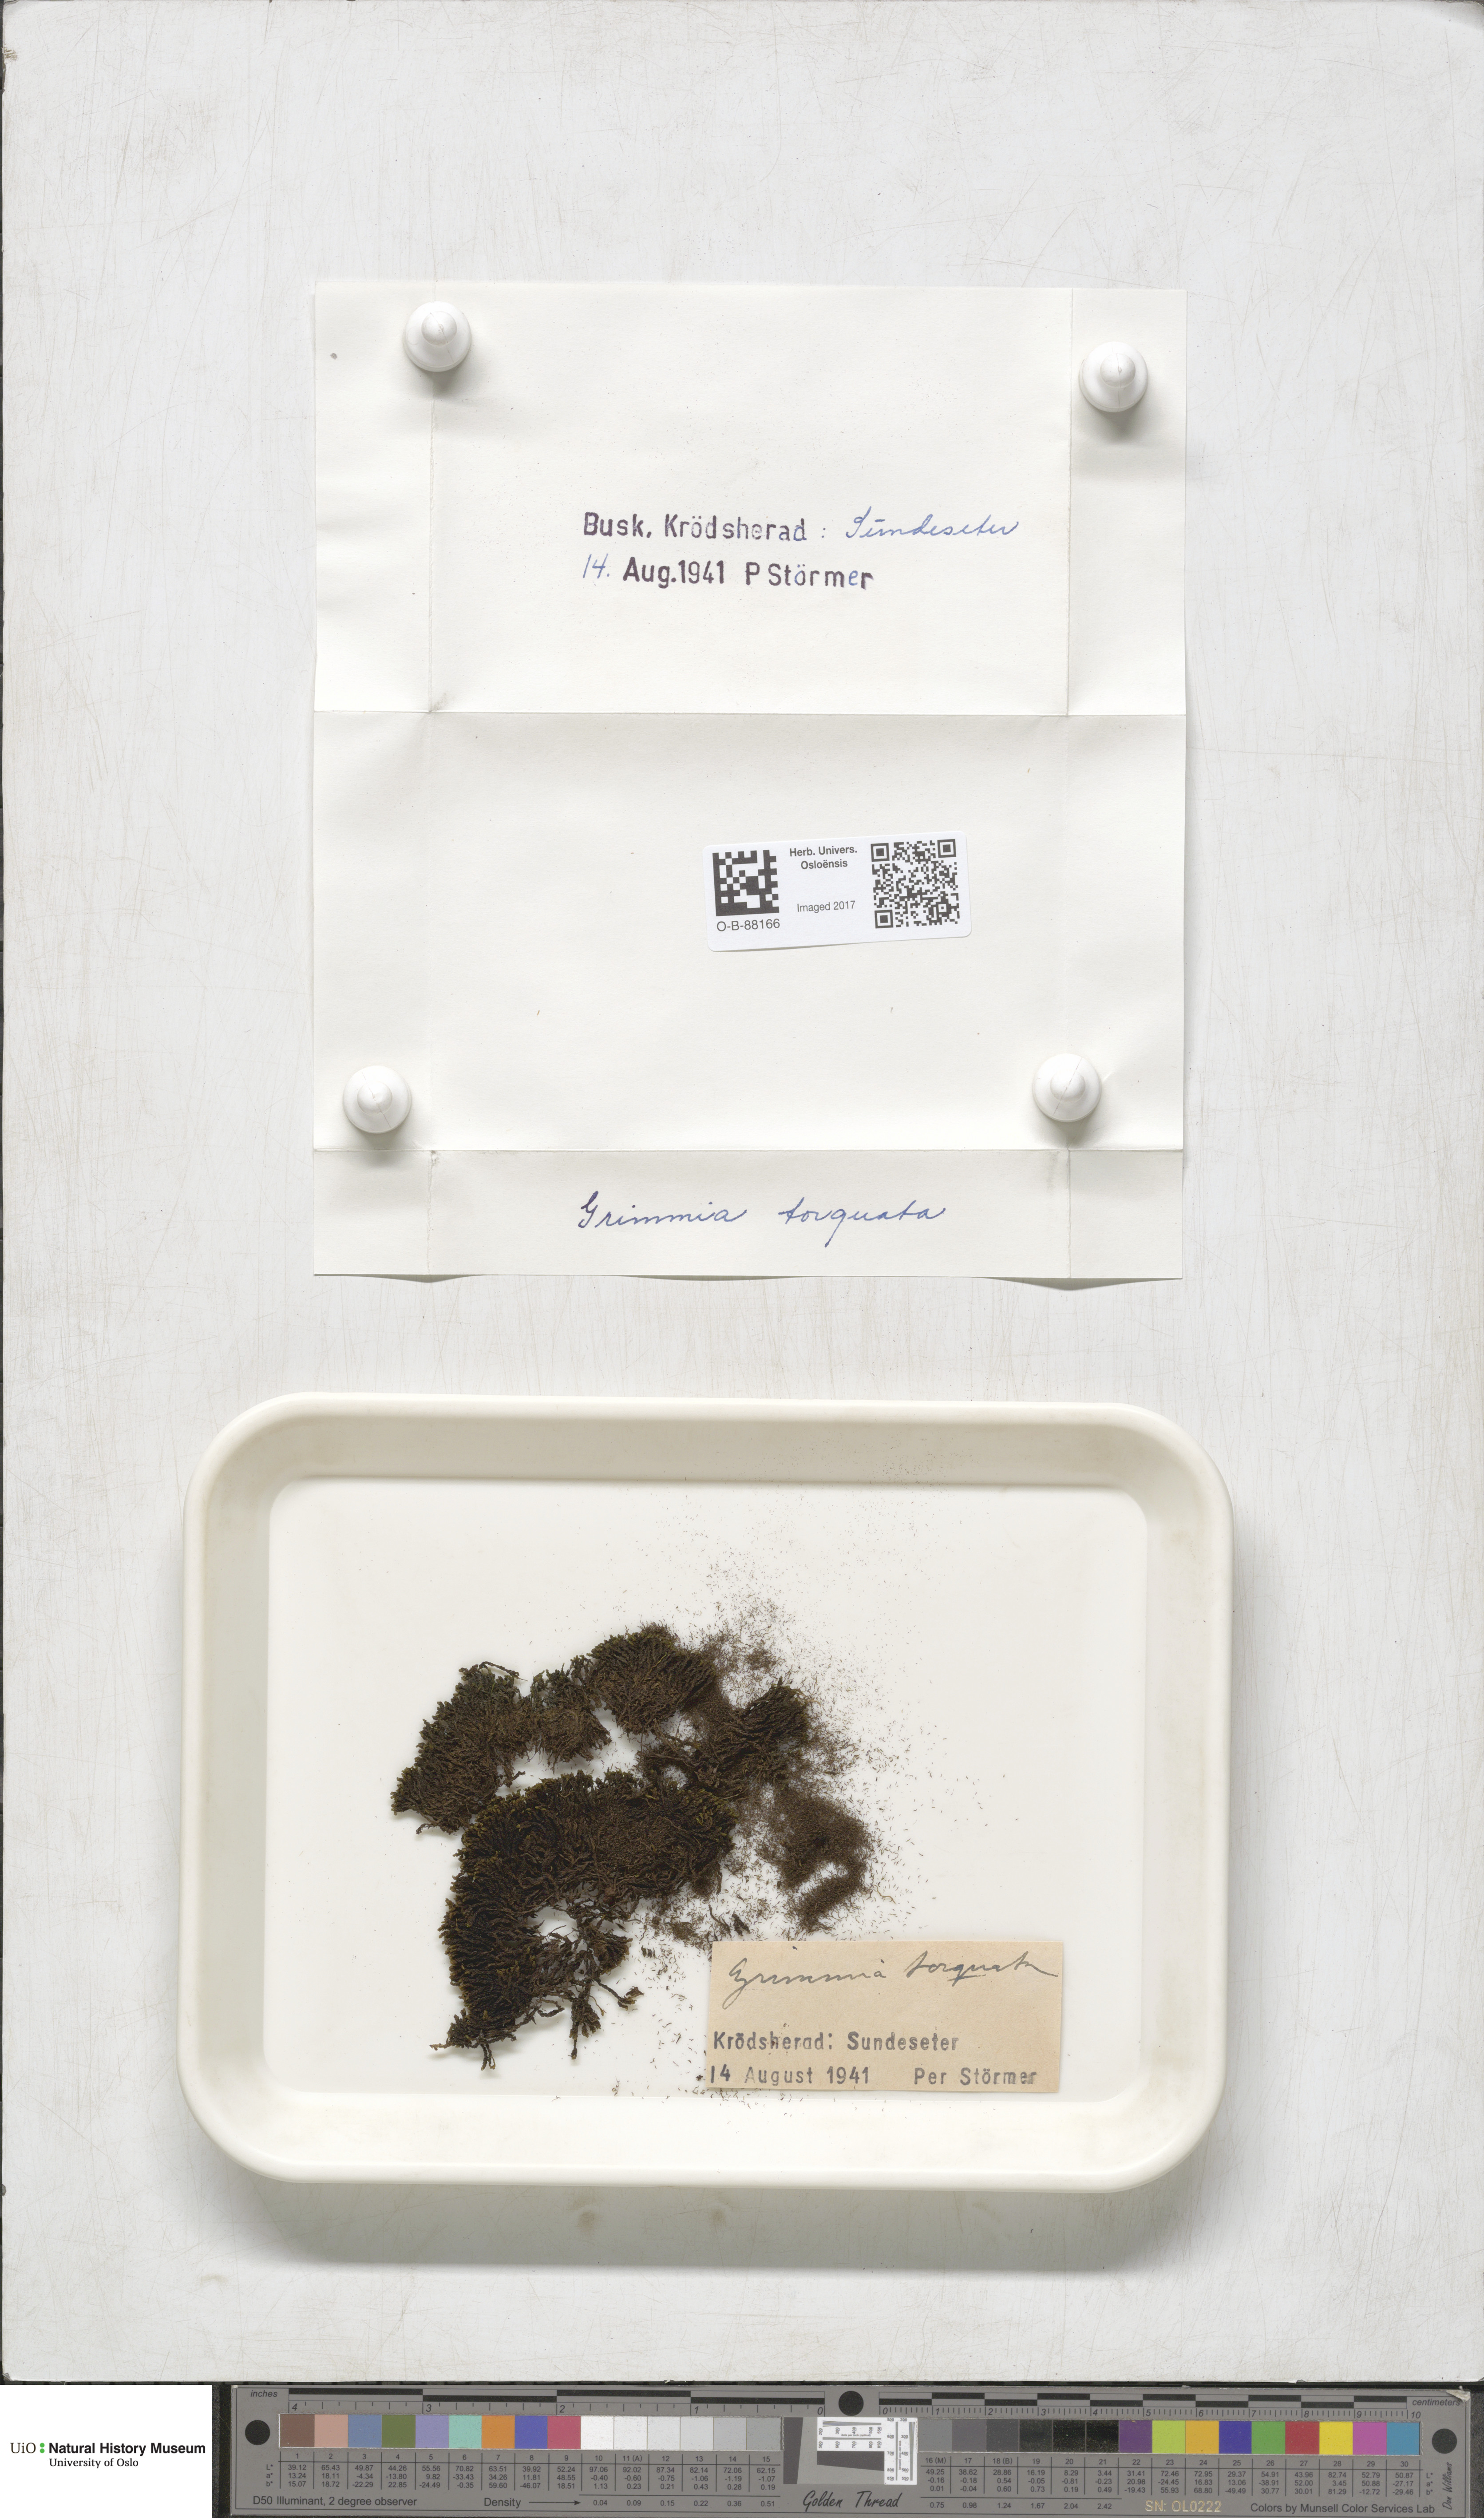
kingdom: Plantae
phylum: Bryophyta
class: Bryopsida
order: Grimmiales
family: Grimmiaceae
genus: Grimmia
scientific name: Grimmia torquata
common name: Twisted grimmia
